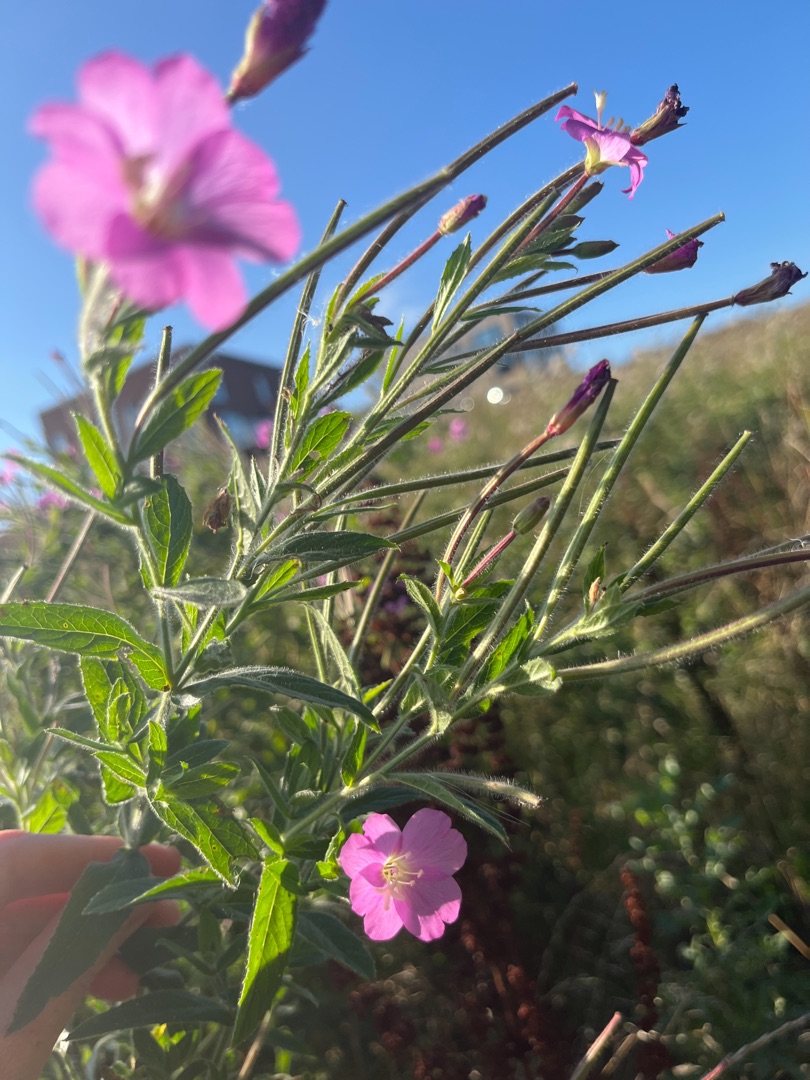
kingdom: Plantae
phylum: Tracheophyta
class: Magnoliopsida
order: Myrtales
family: Onagraceae
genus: Epilobium
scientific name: Epilobium hirsutum
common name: Lådden dueurt
